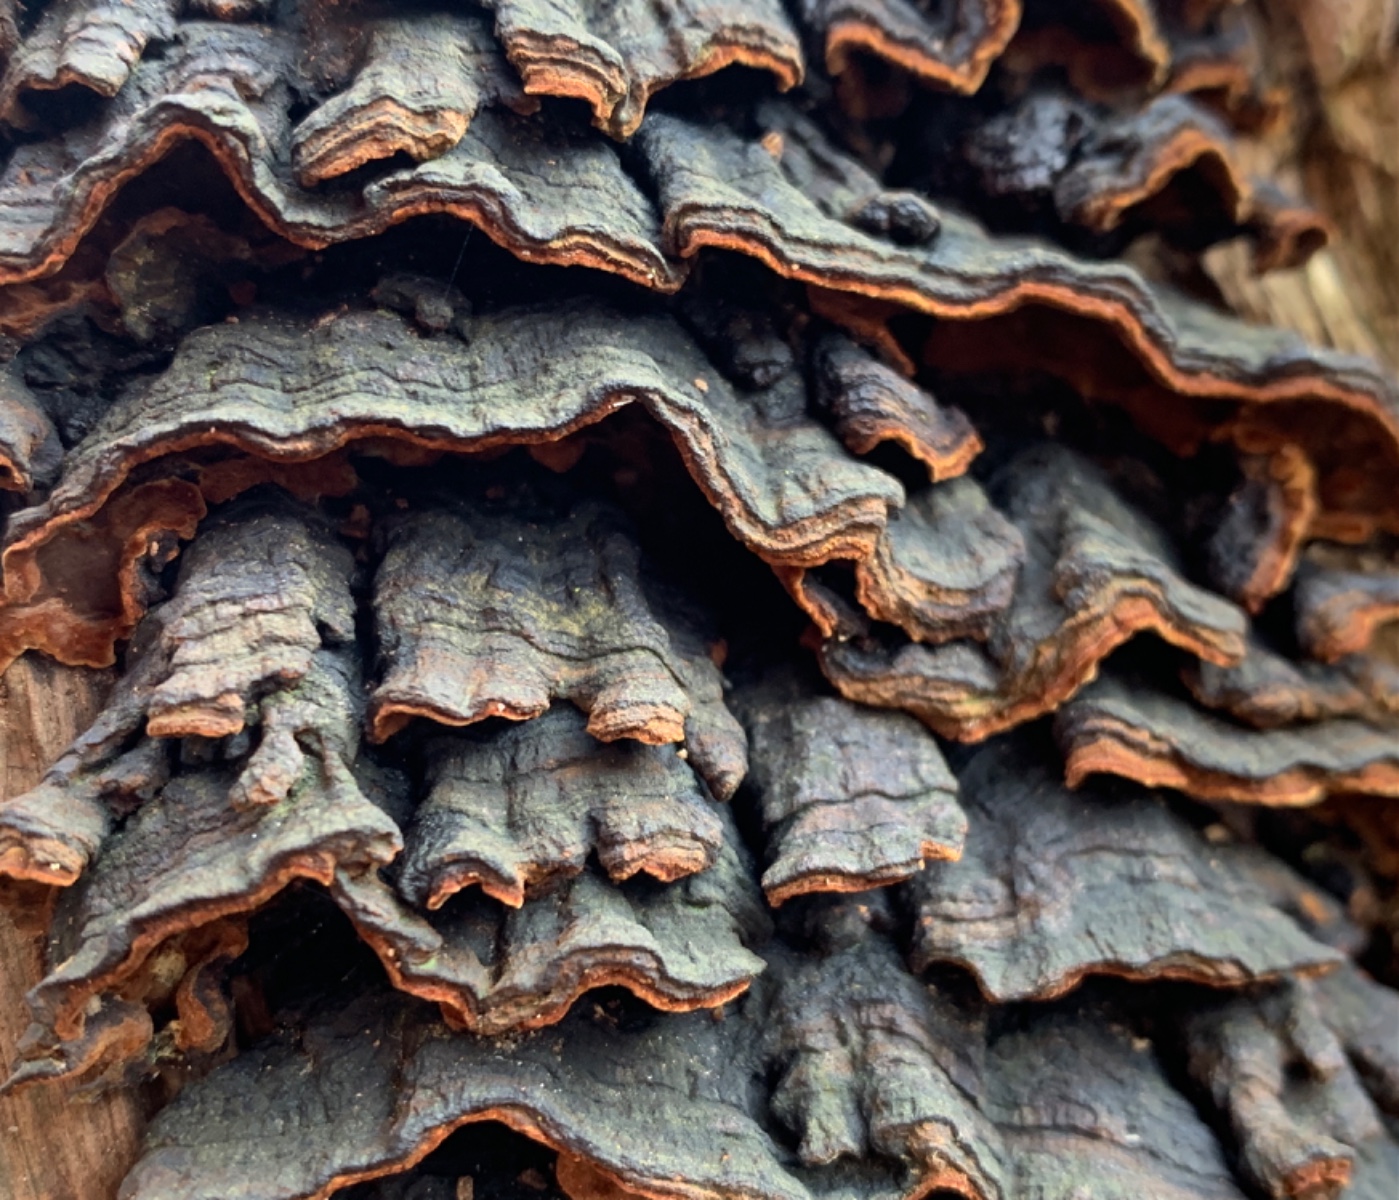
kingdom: Fungi
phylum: Basidiomycota
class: Agaricomycetes
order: Hymenochaetales
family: Hymenochaetaceae
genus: Hymenochaete
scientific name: Hymenochaete rubiginosa
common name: stiv ruslædersvamp
